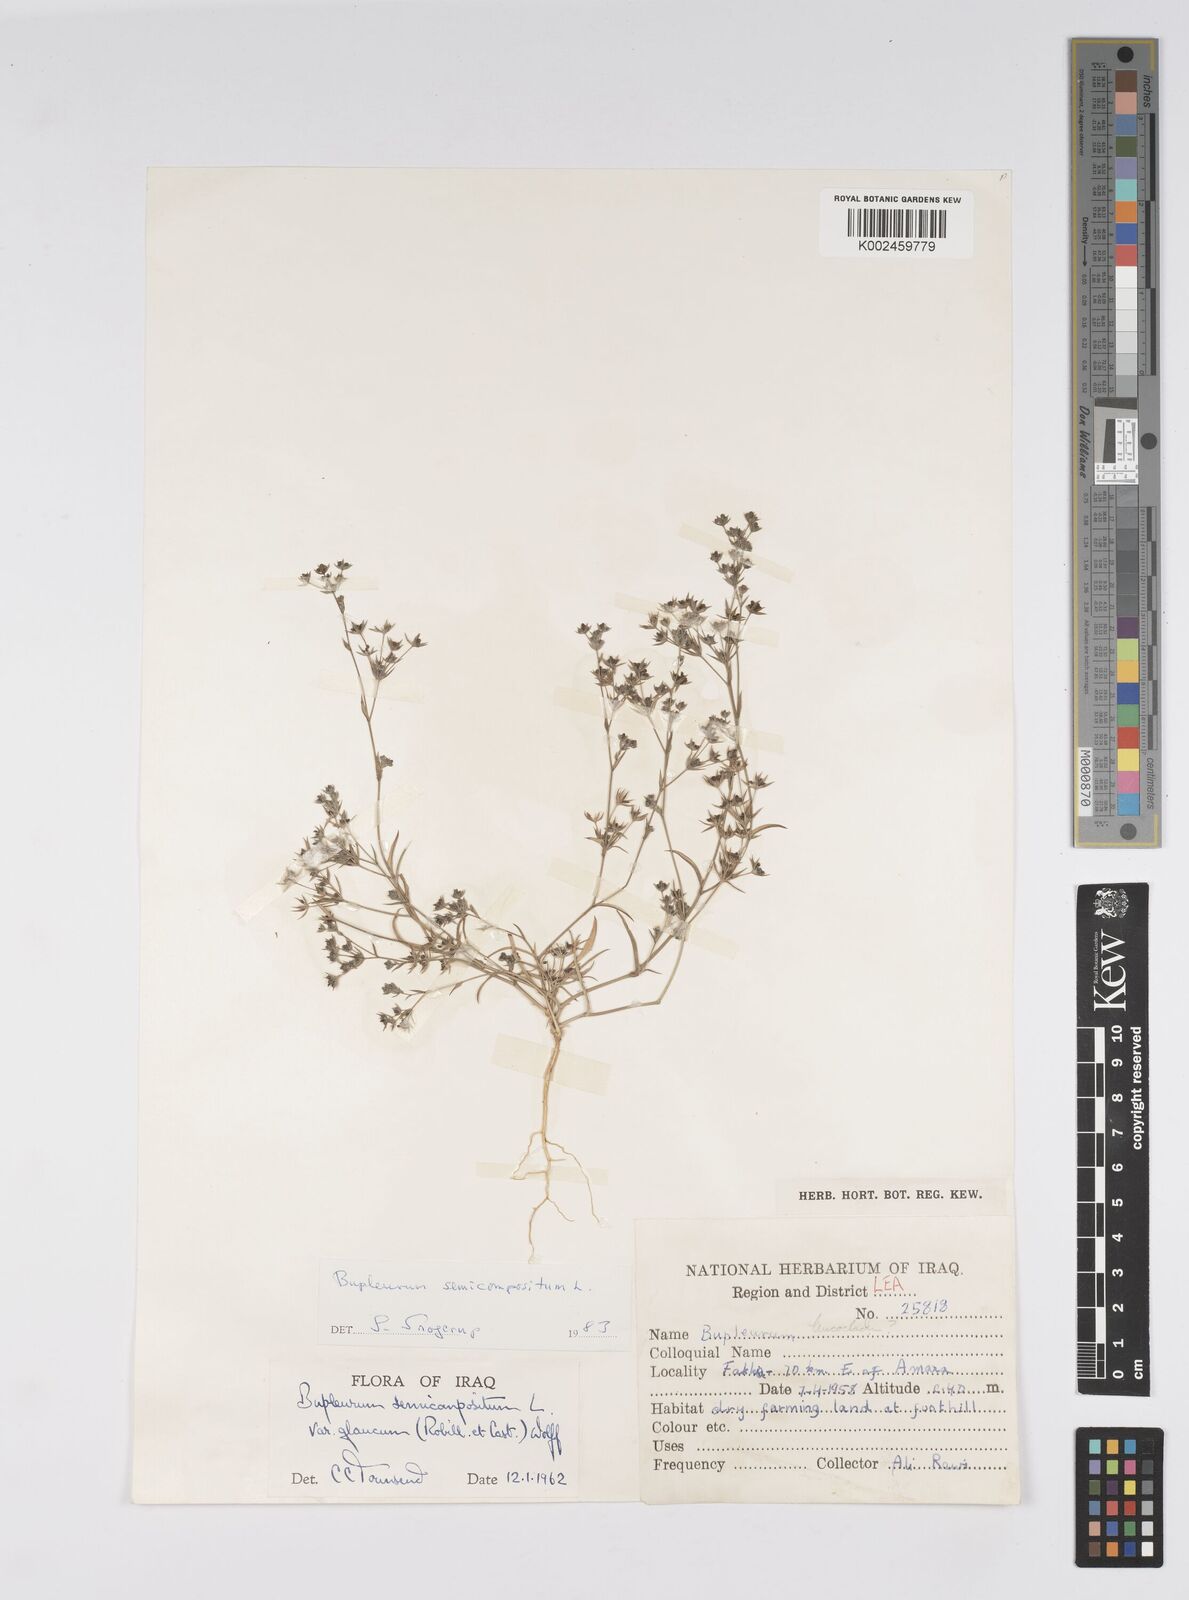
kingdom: Plantae
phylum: Tracheophyta
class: Magnoliopsida
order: Apiales
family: Apiaceae
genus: Bupleurum
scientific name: Bupleurum semicompositum
